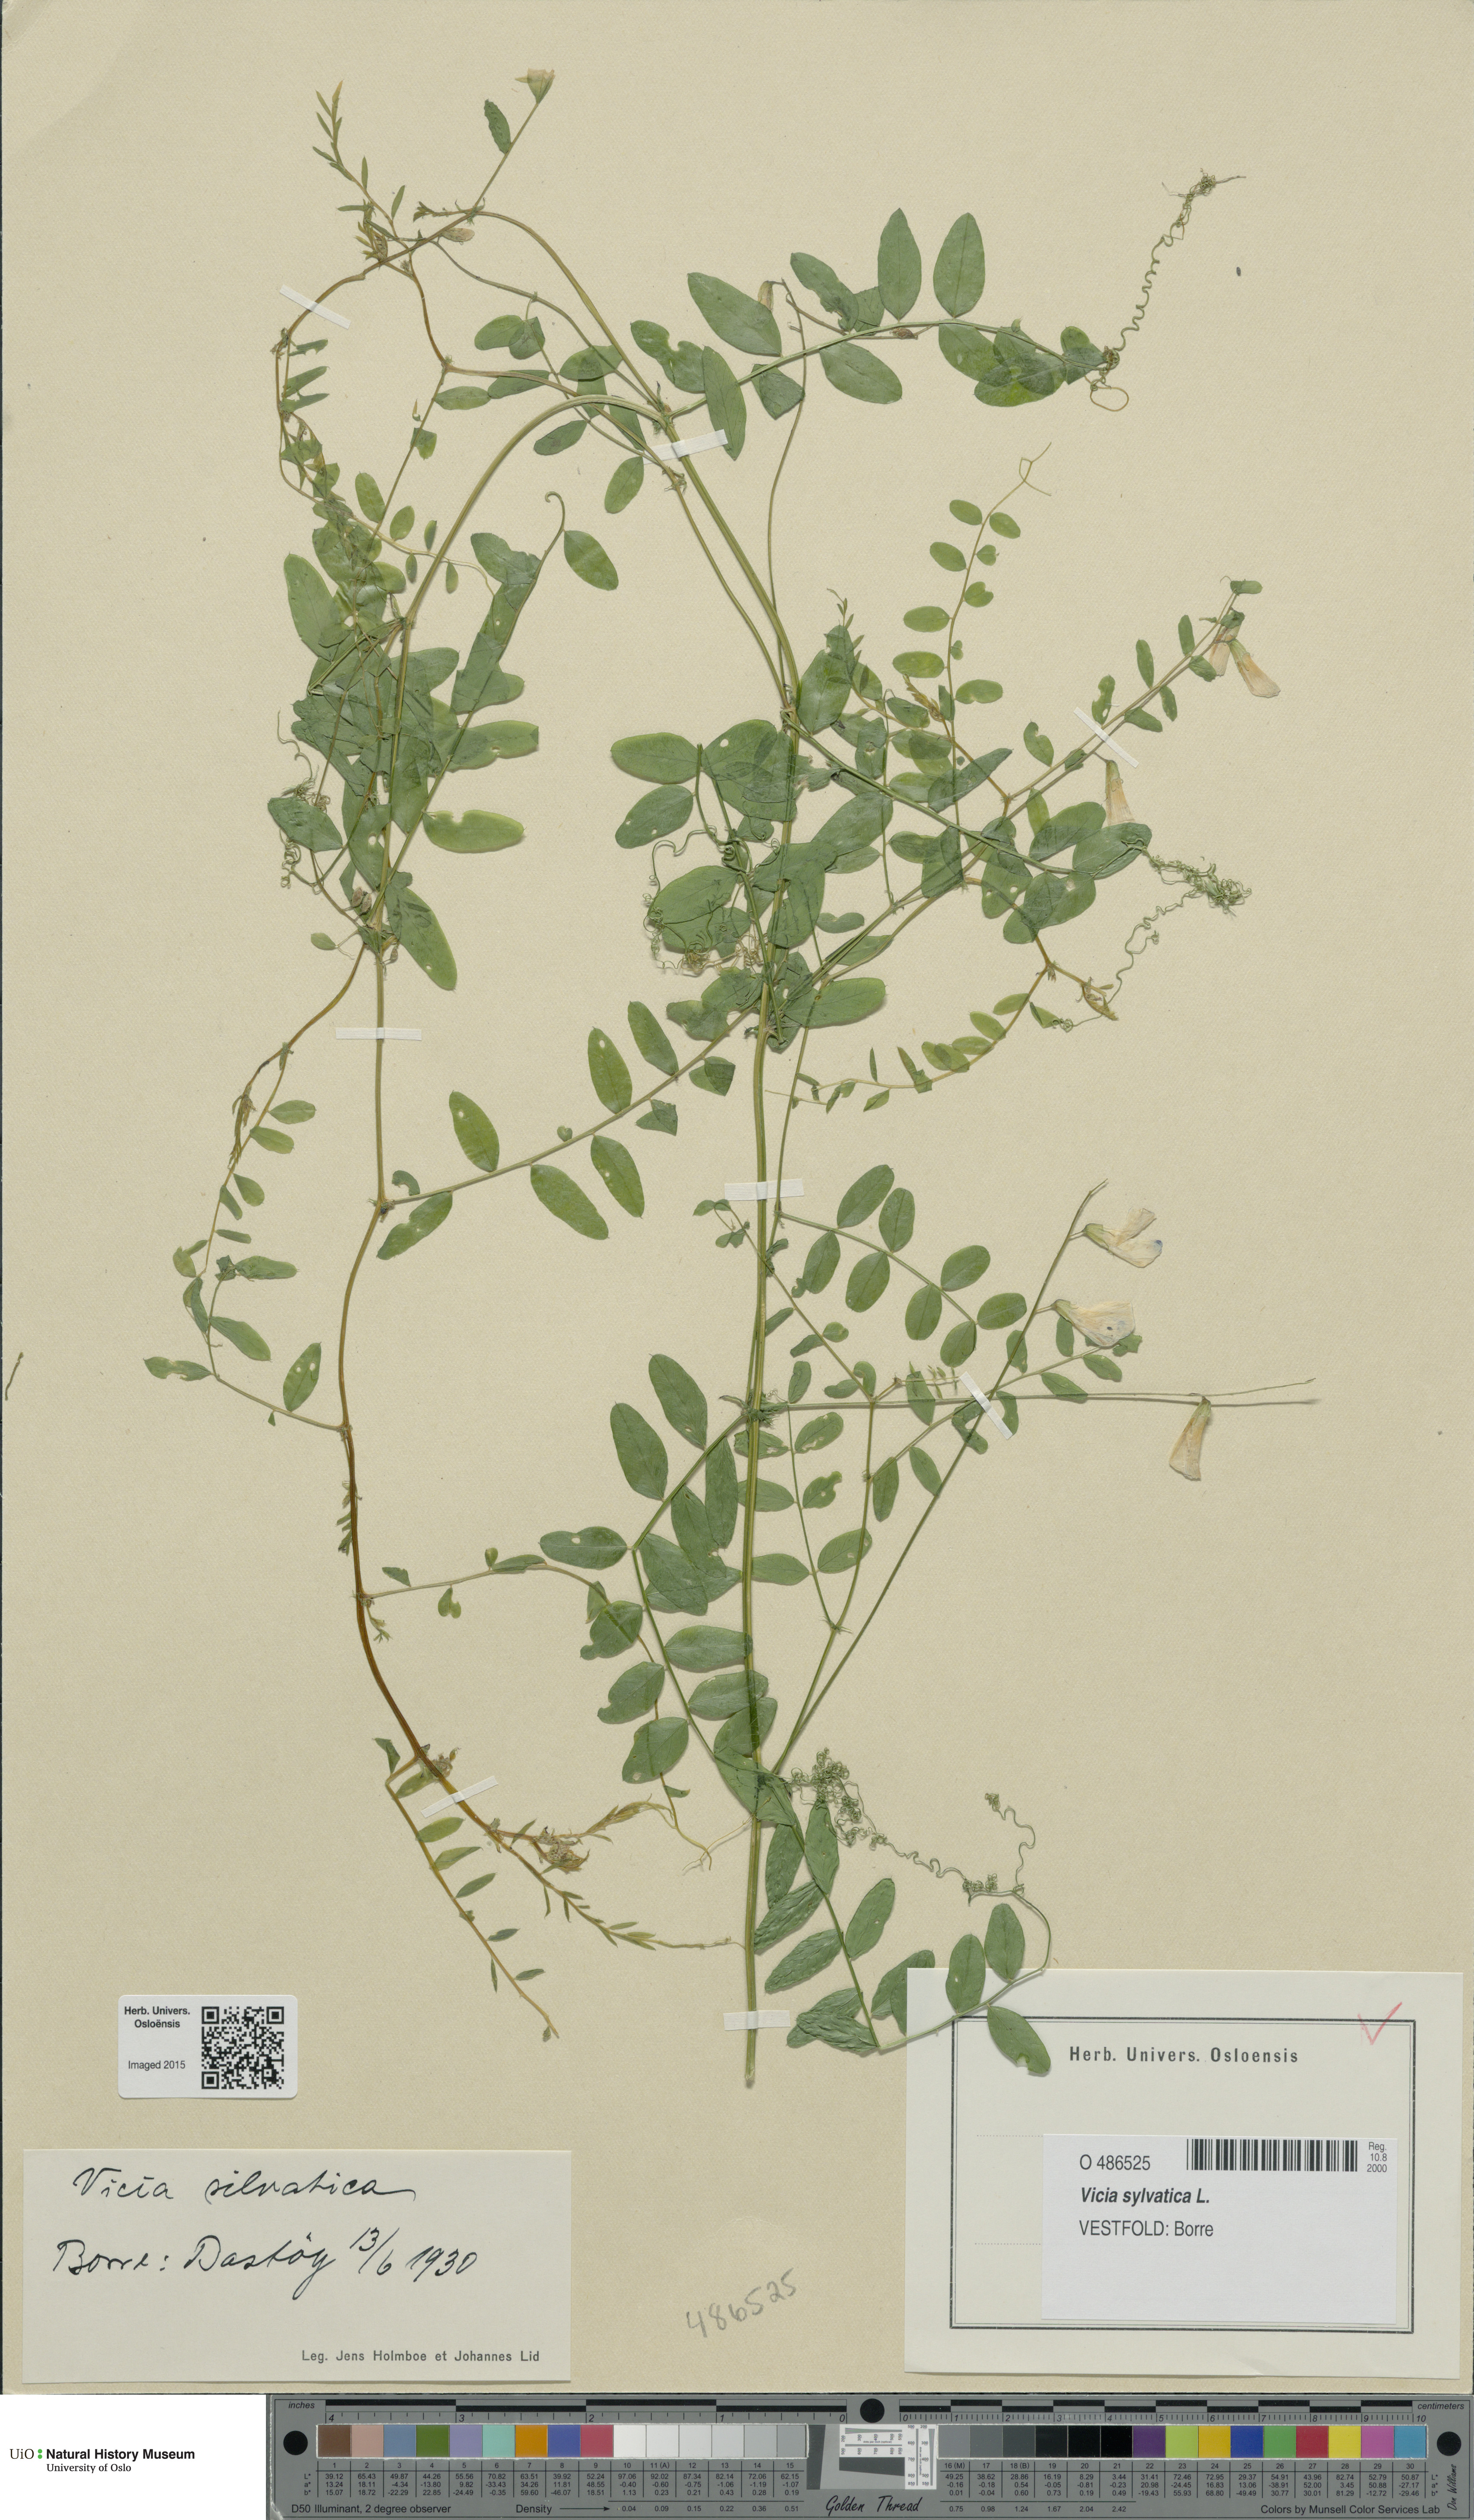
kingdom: Plantae
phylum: Tracheophyta
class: Magnoliopsida
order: Fabales
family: Fabaceae
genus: Vicia
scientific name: Vicia sylvatica
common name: Wood vetch
